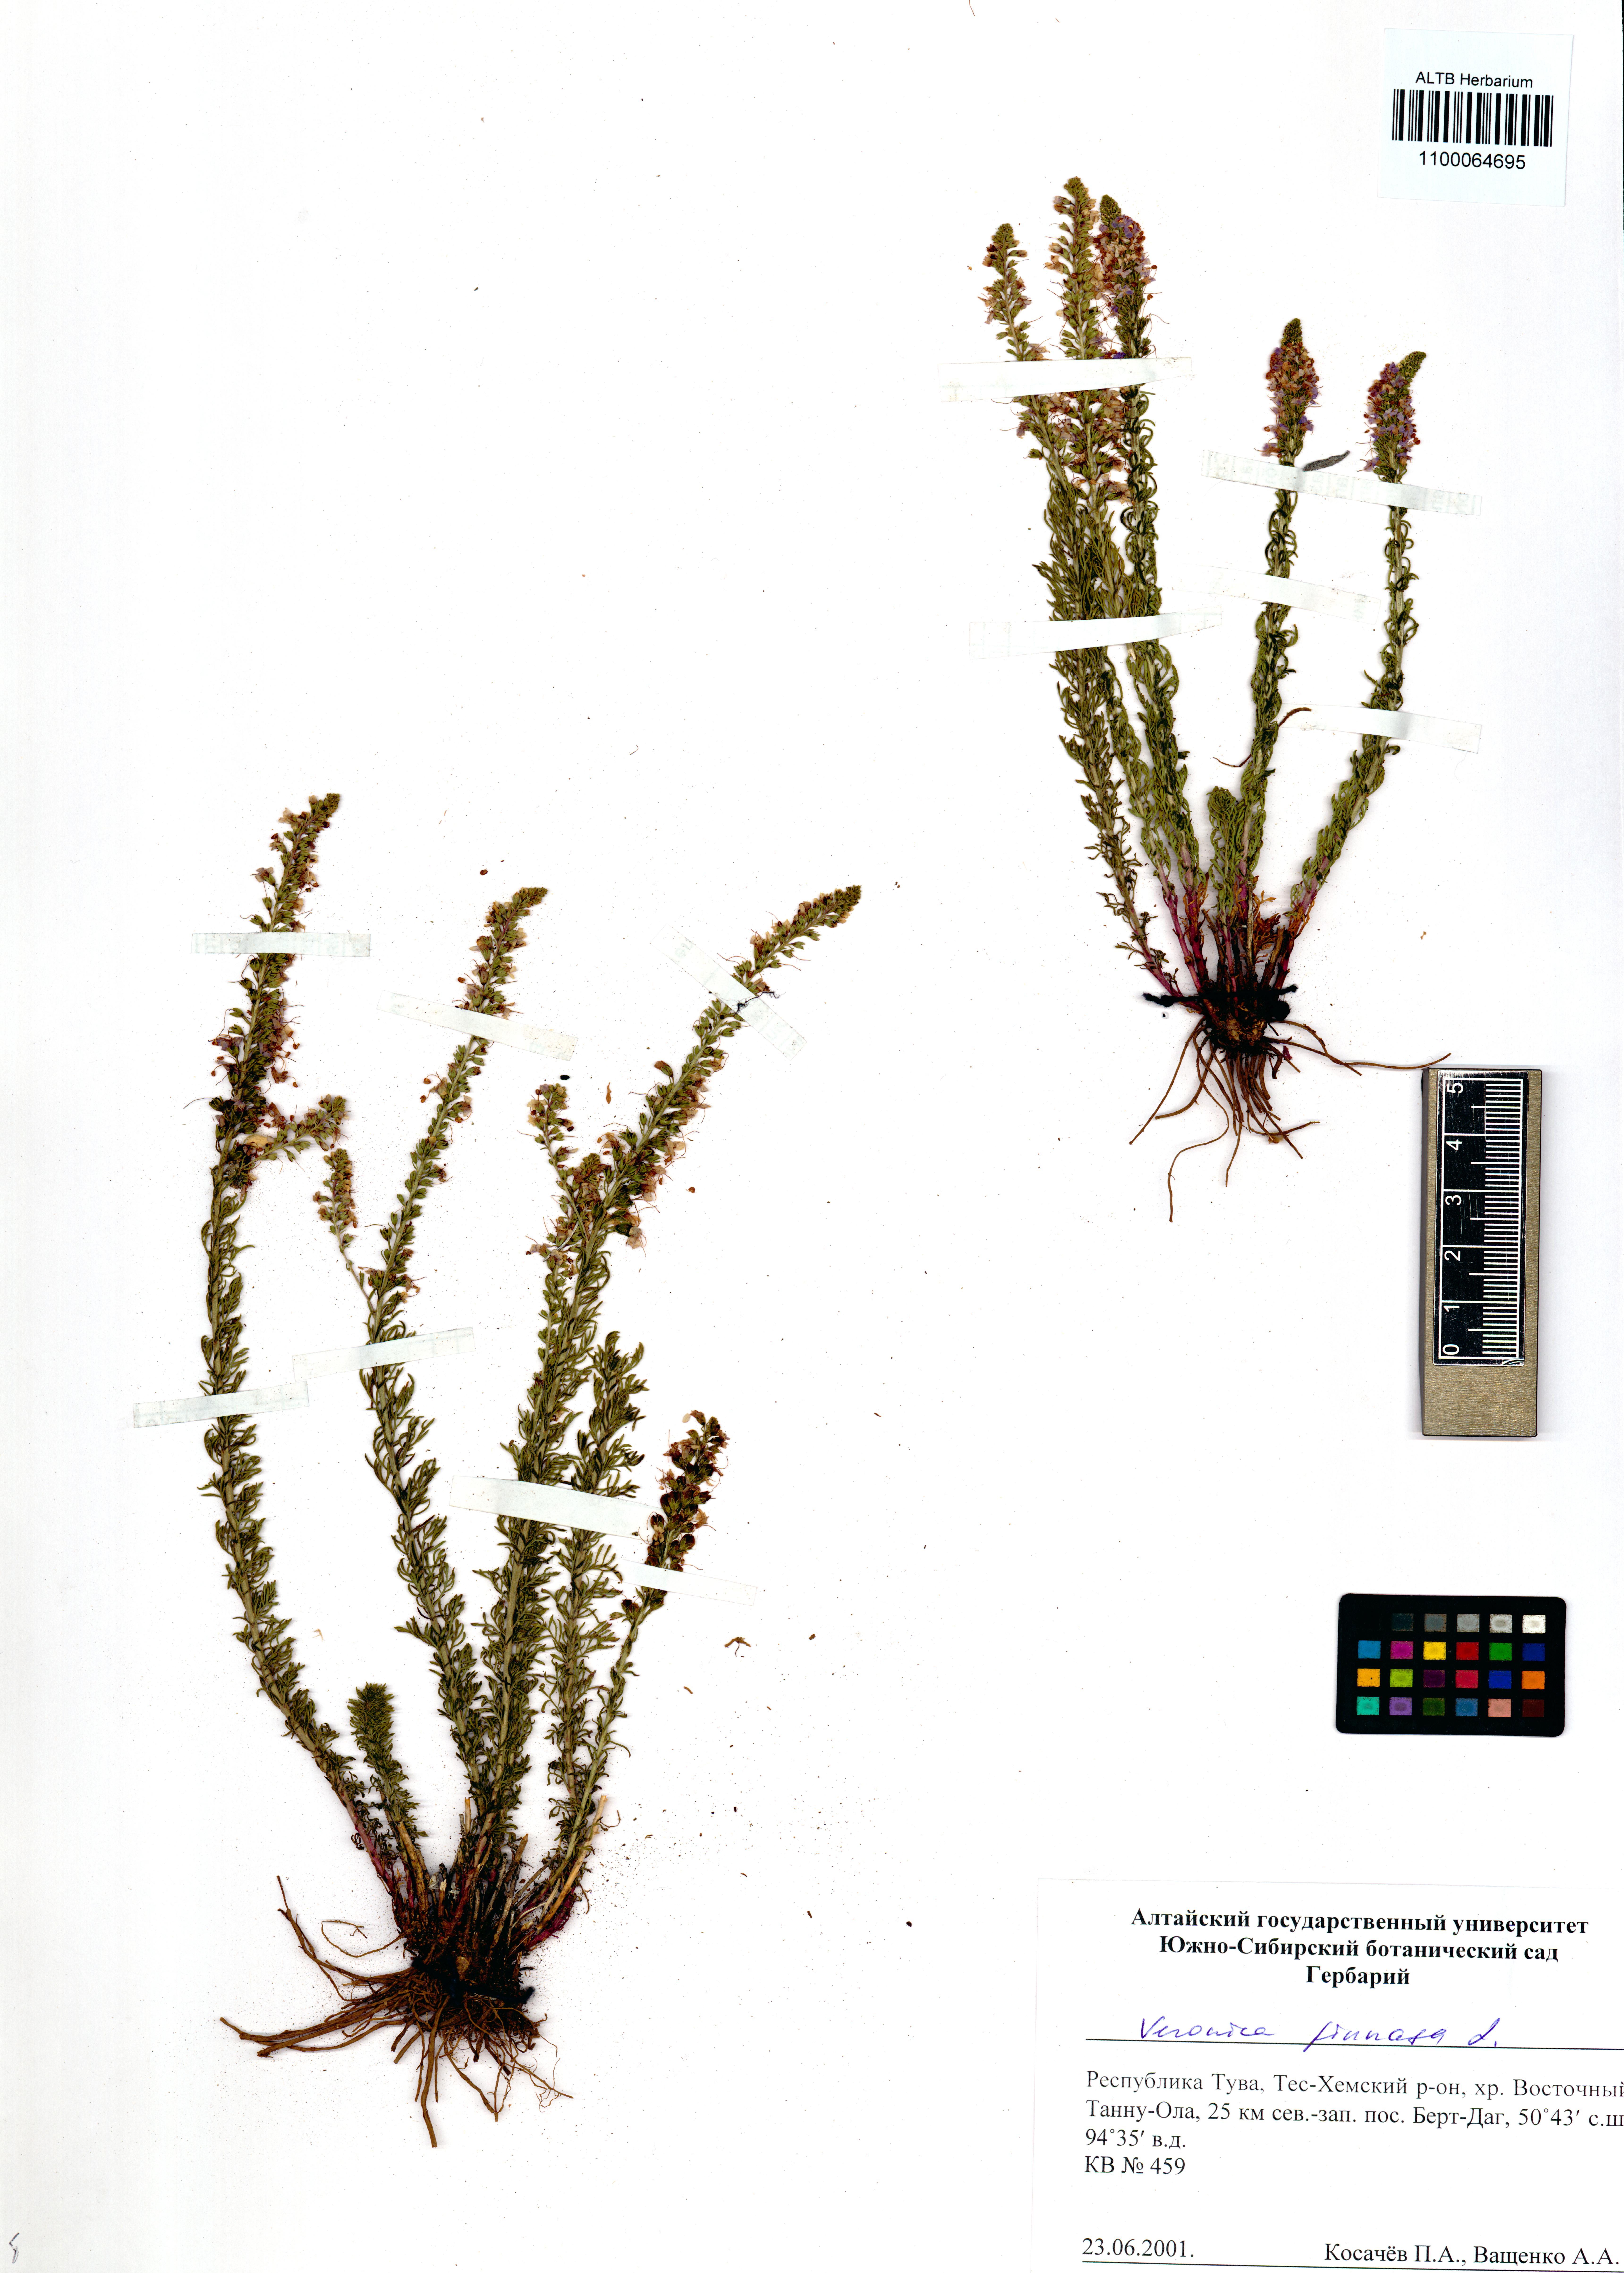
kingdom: Plantae
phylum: Tracheophyta
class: Magnoliopsida
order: Lamiales
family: Plantaginaceae
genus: Veronica
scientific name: Veronica pinnata
